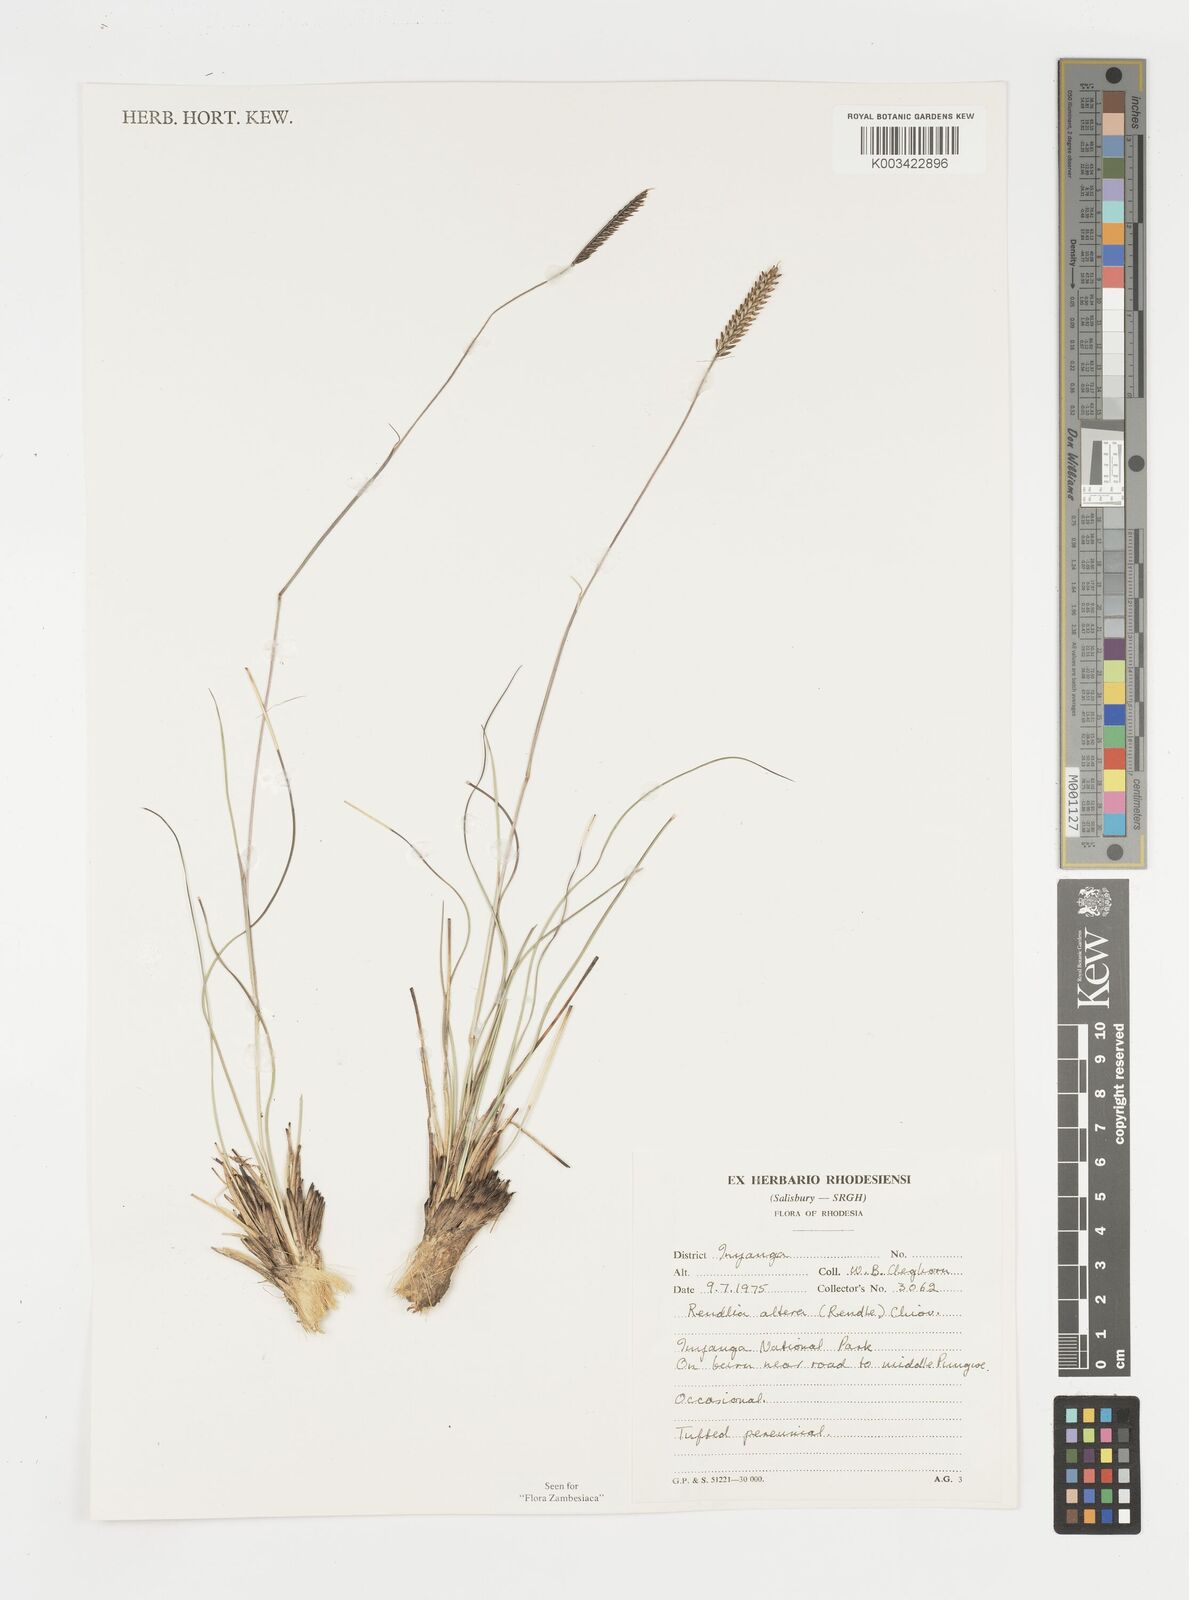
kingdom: Plantae
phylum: Tracheophyta
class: Liliopsida
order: Poales
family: Poaceae
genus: Microchloa
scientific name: Microchloa altera
